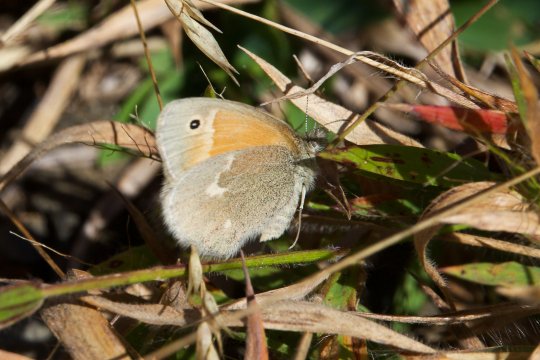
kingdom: Animalia
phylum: Arthropoda
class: Insecta
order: Lepidoptera
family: Nymphalidae
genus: Coenonympha
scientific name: Coenonympha tullia
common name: Large Heath
